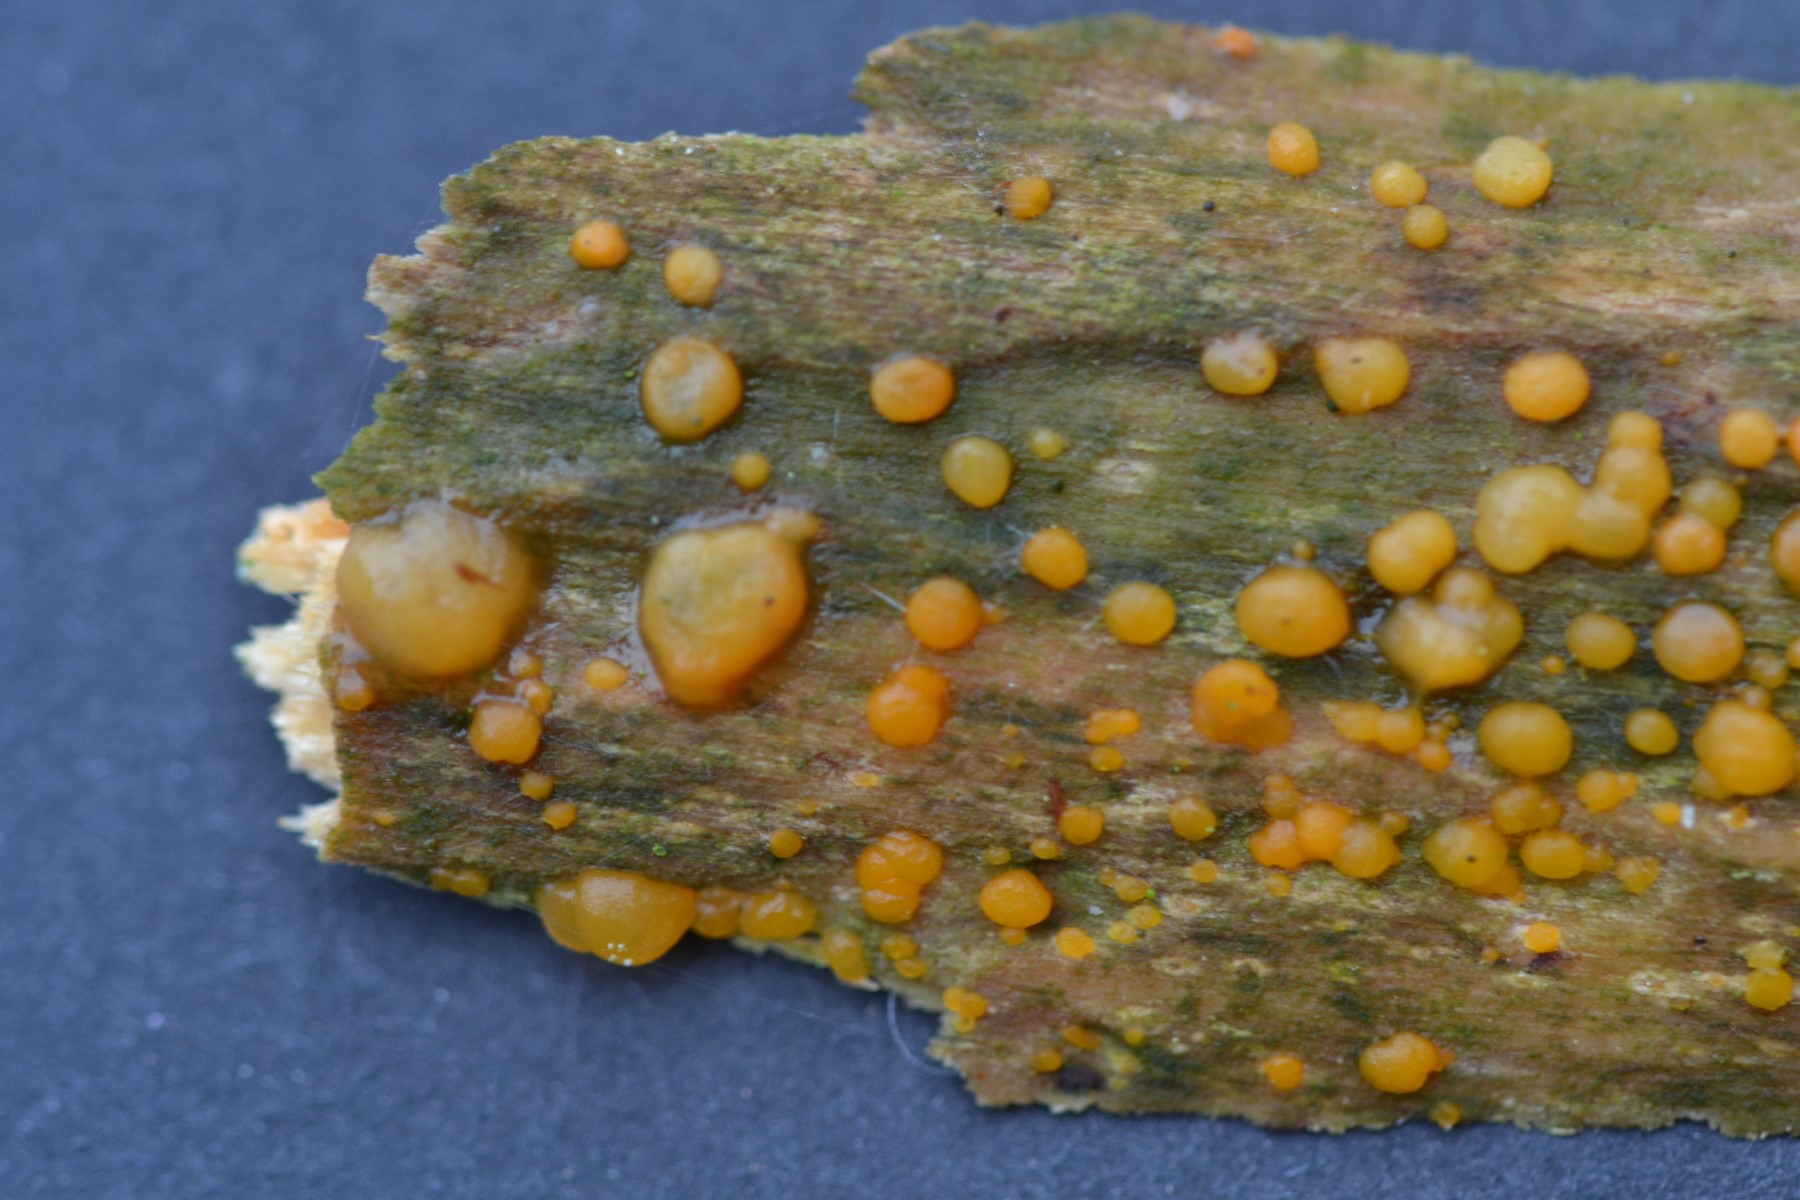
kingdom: Fungi
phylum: Basidiomycota
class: Dacrymycetes
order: Dacrymycetales
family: Dacrymycetaceae
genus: Dacrymyces
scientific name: Dacrymyces stillatus
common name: almindelig tåresvamp
